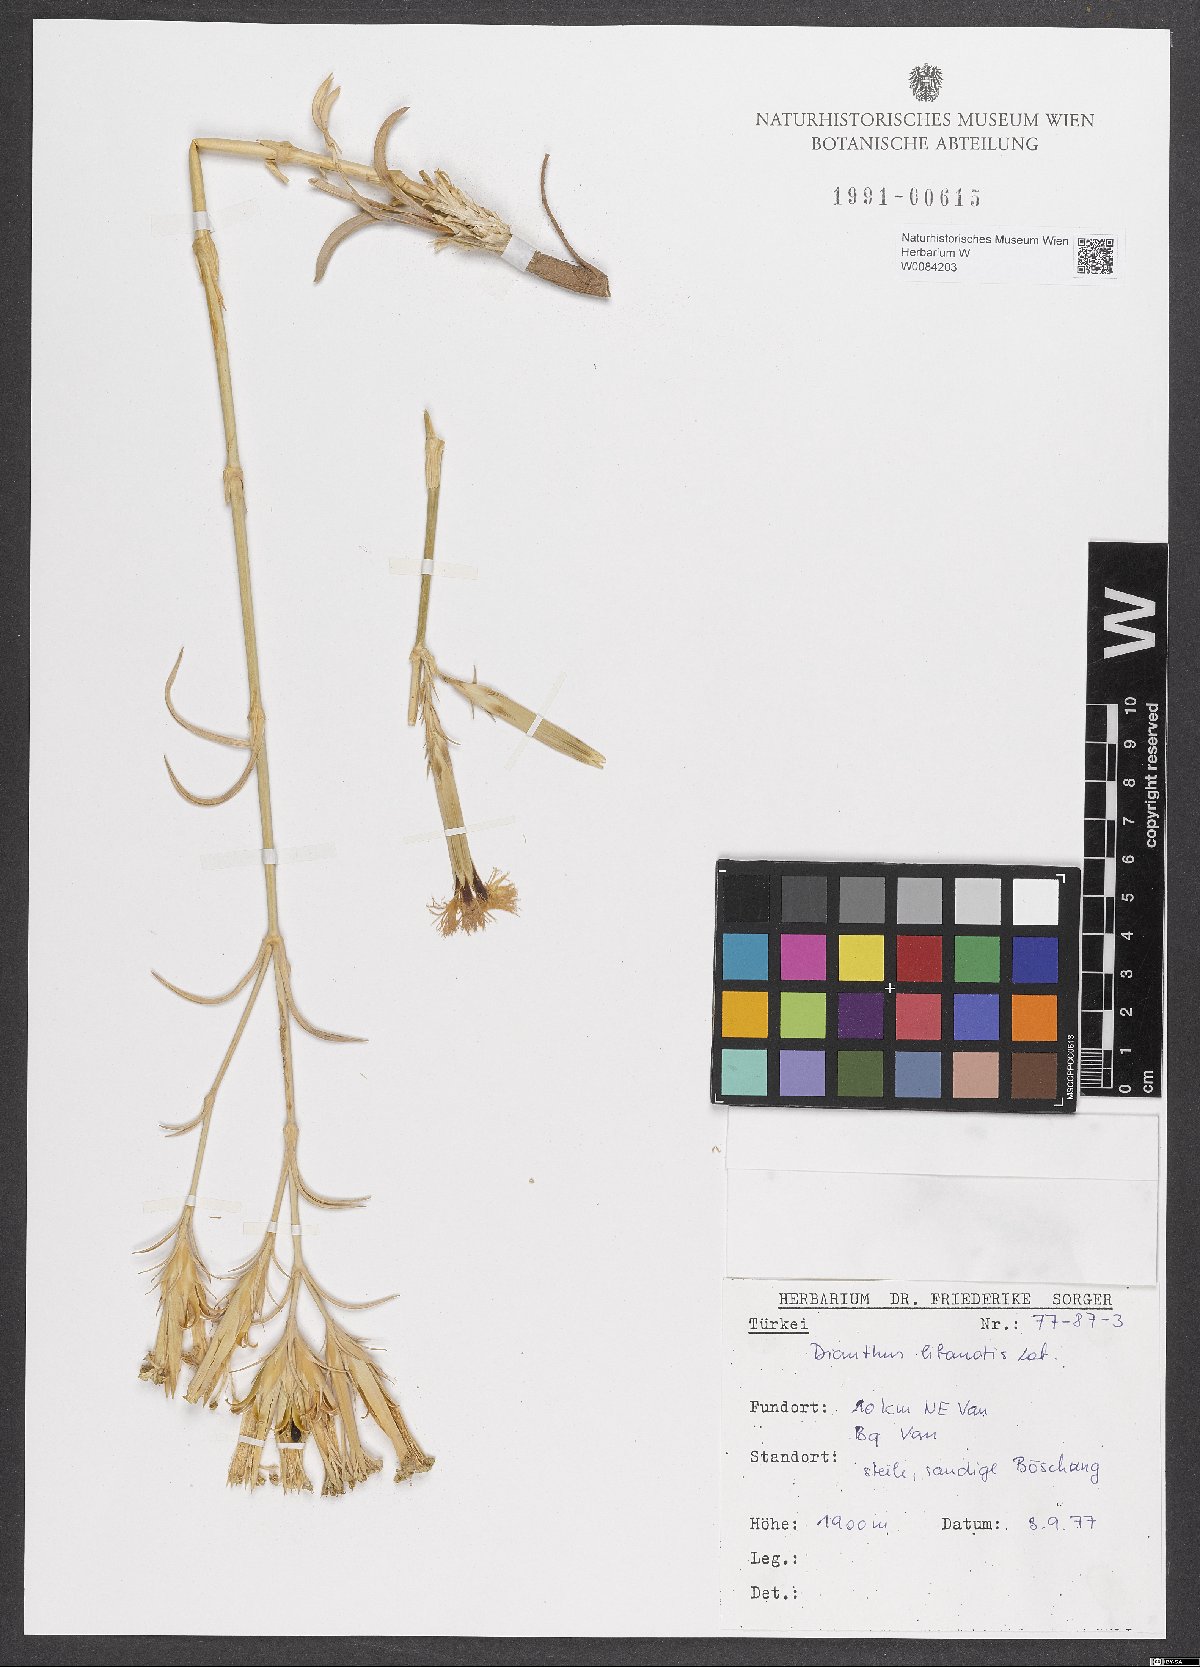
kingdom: Plantae
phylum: Tracheophyta
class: Magnoliopsida
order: Caryophyllales
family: Caryophyllaceae
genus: Dianthus
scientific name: Dianthus libanotis
